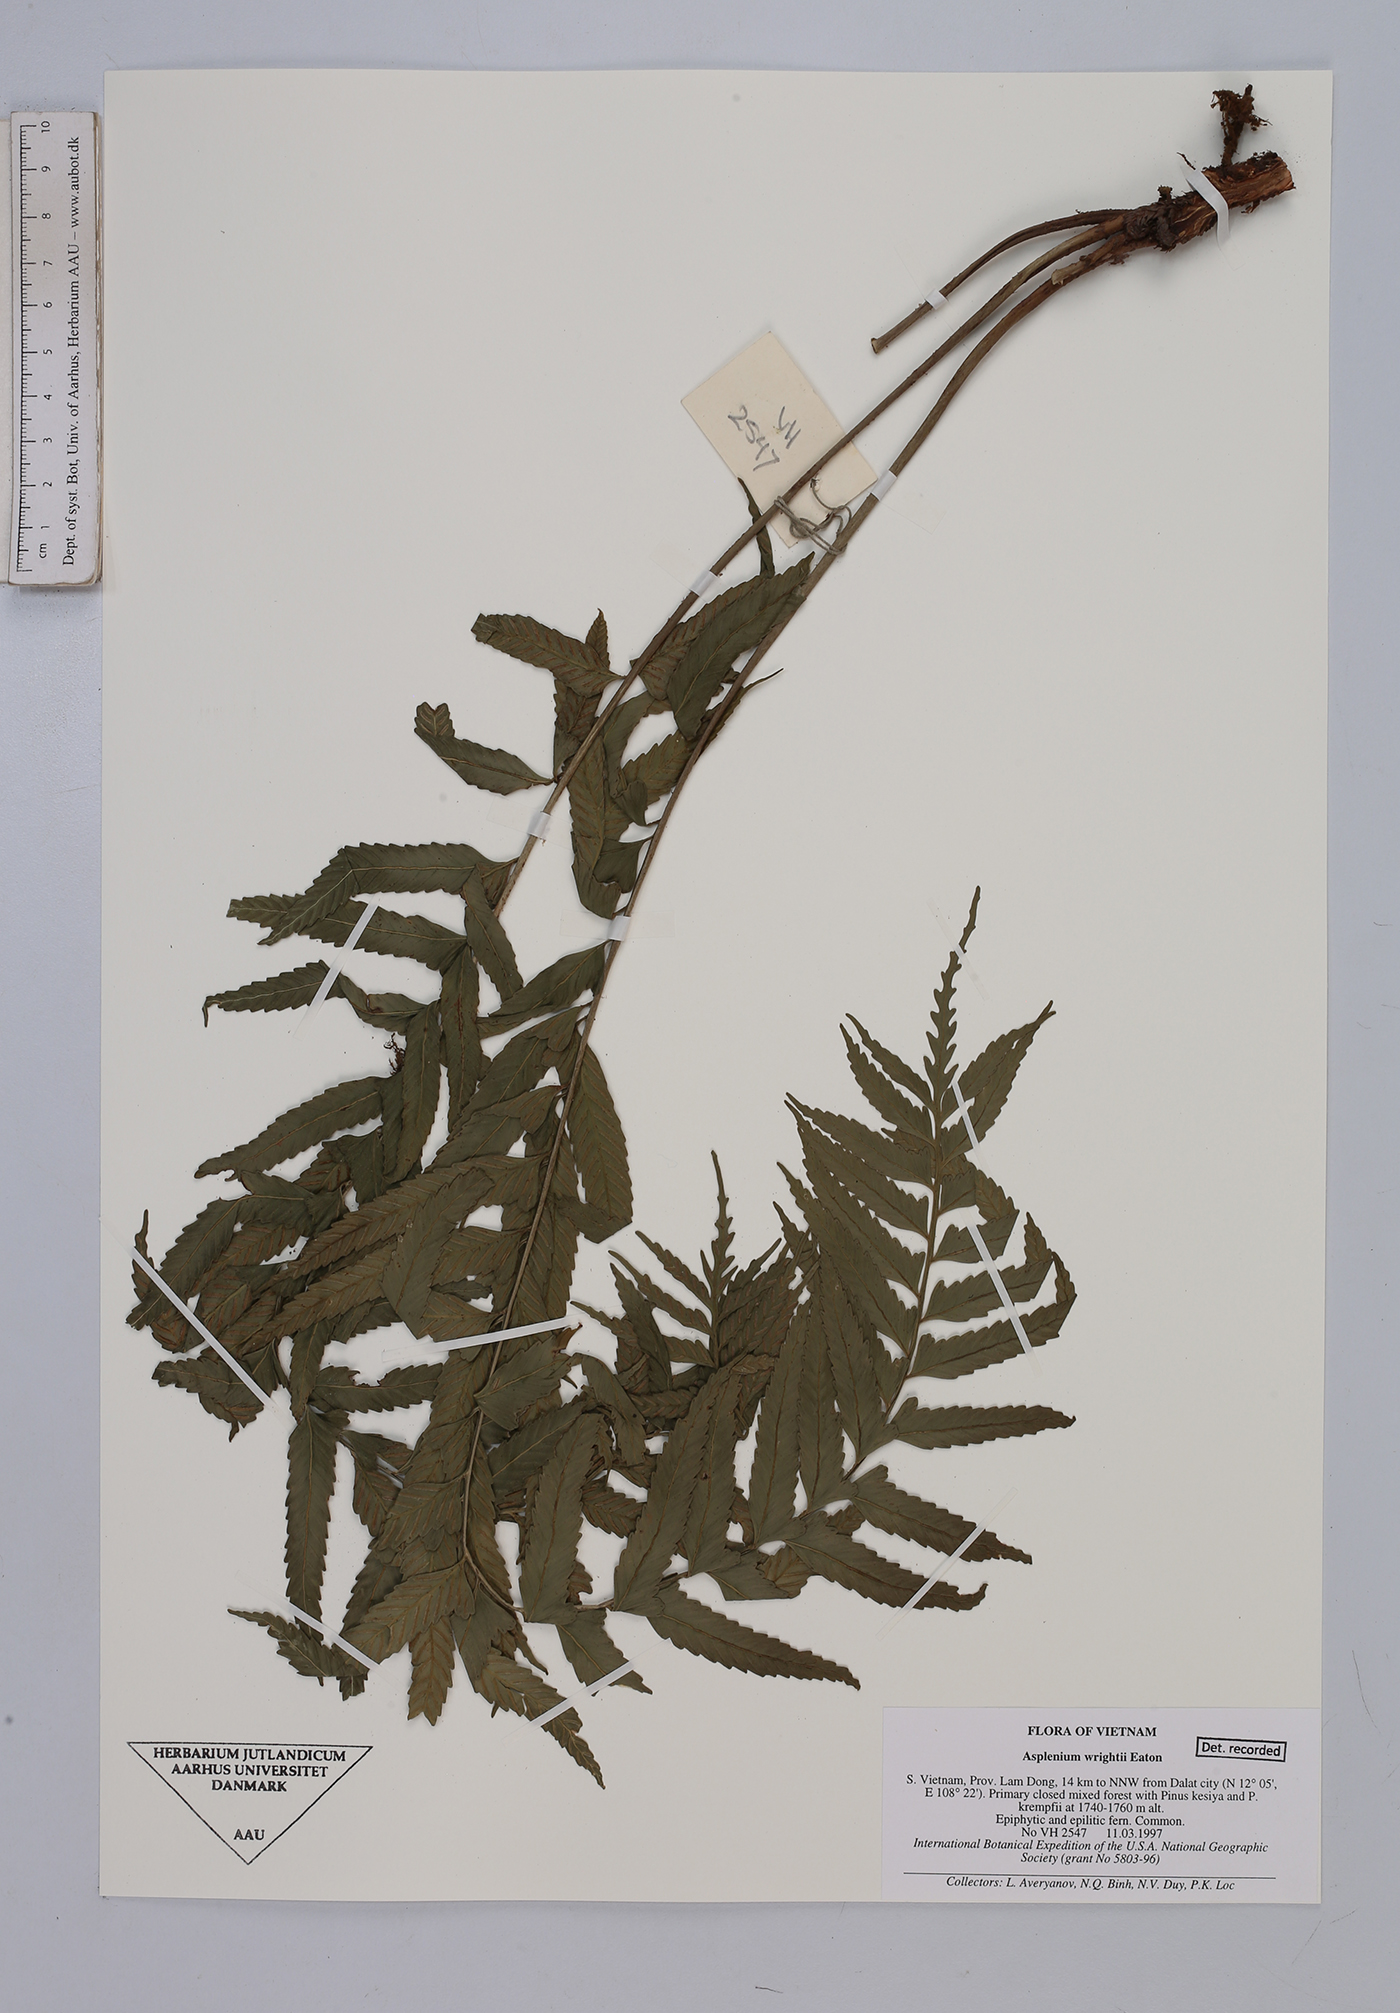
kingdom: Plantae
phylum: Tracheophyta
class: Polypodiopsida
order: Polypodiales
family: Aspleniaceae
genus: Asplenium
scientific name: Asplenium wrightii
